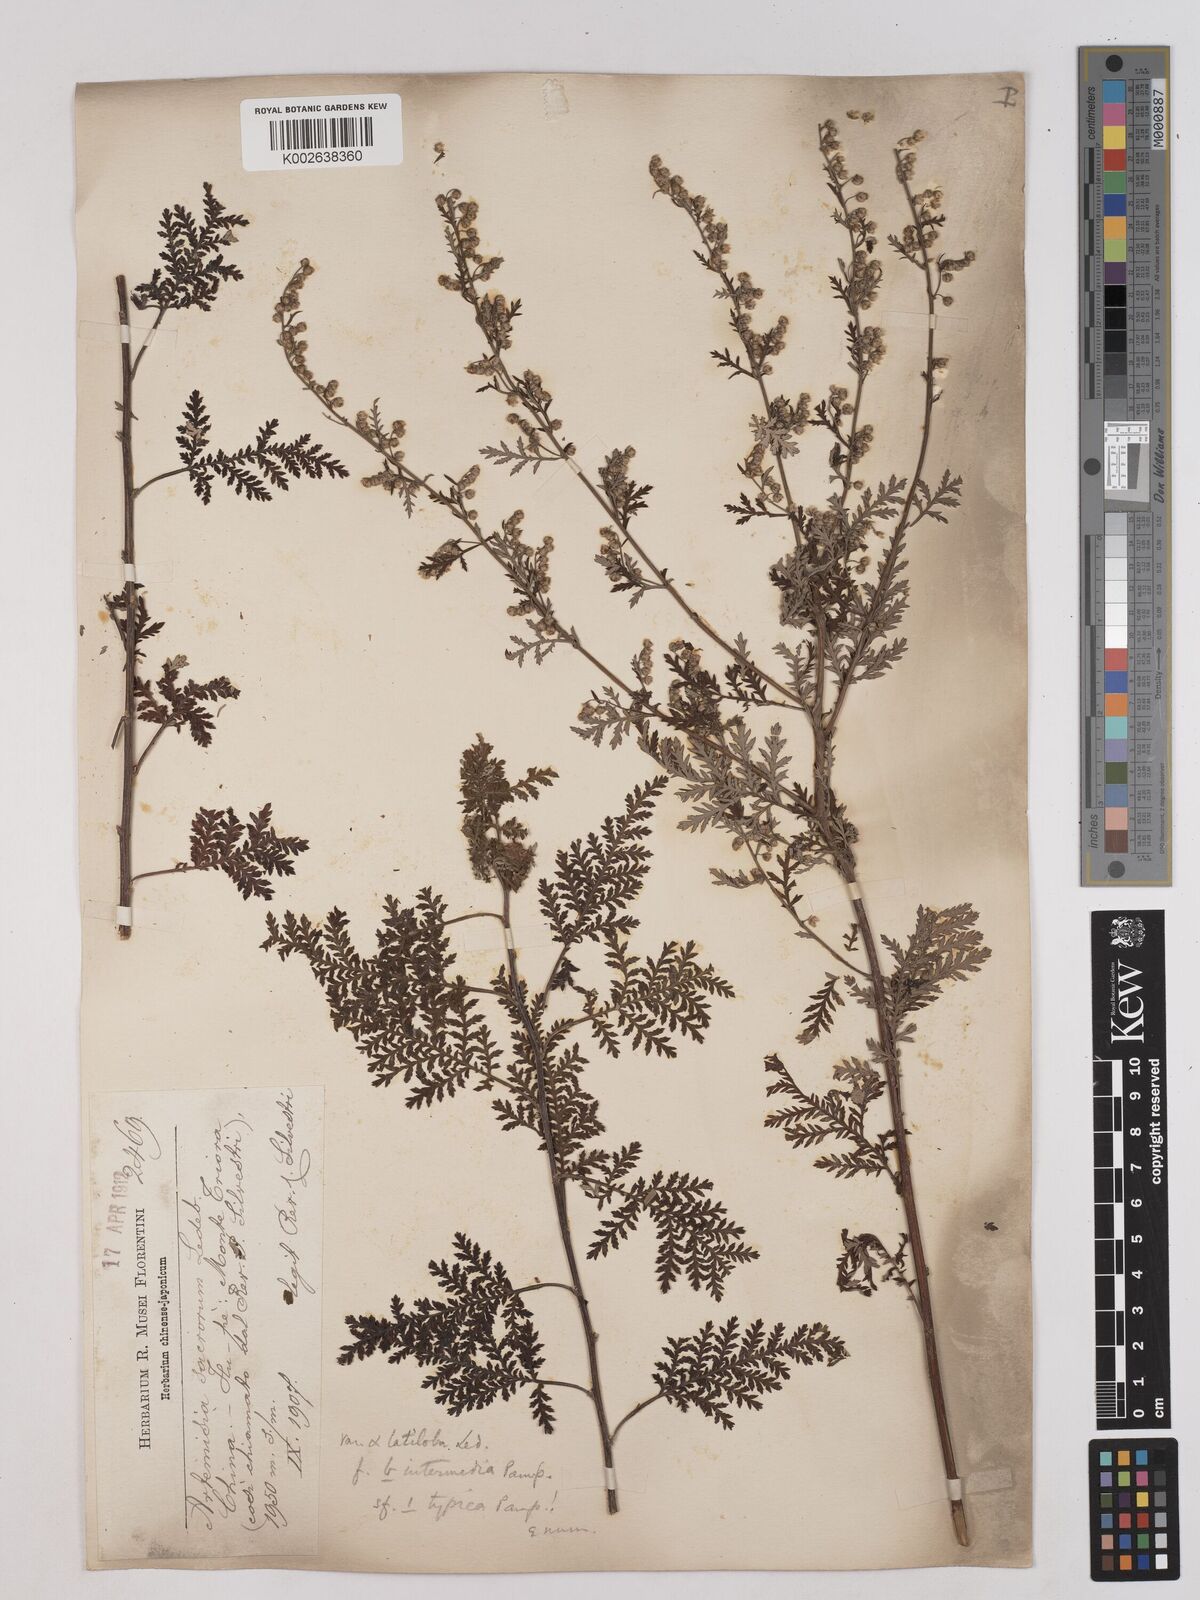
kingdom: Plantae
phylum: Tracheophyta
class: Magnoliopsida
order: Asterales
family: Asteraceae
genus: Artemisia
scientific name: Artemisia gmelinii
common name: Gmelin's wormwood
